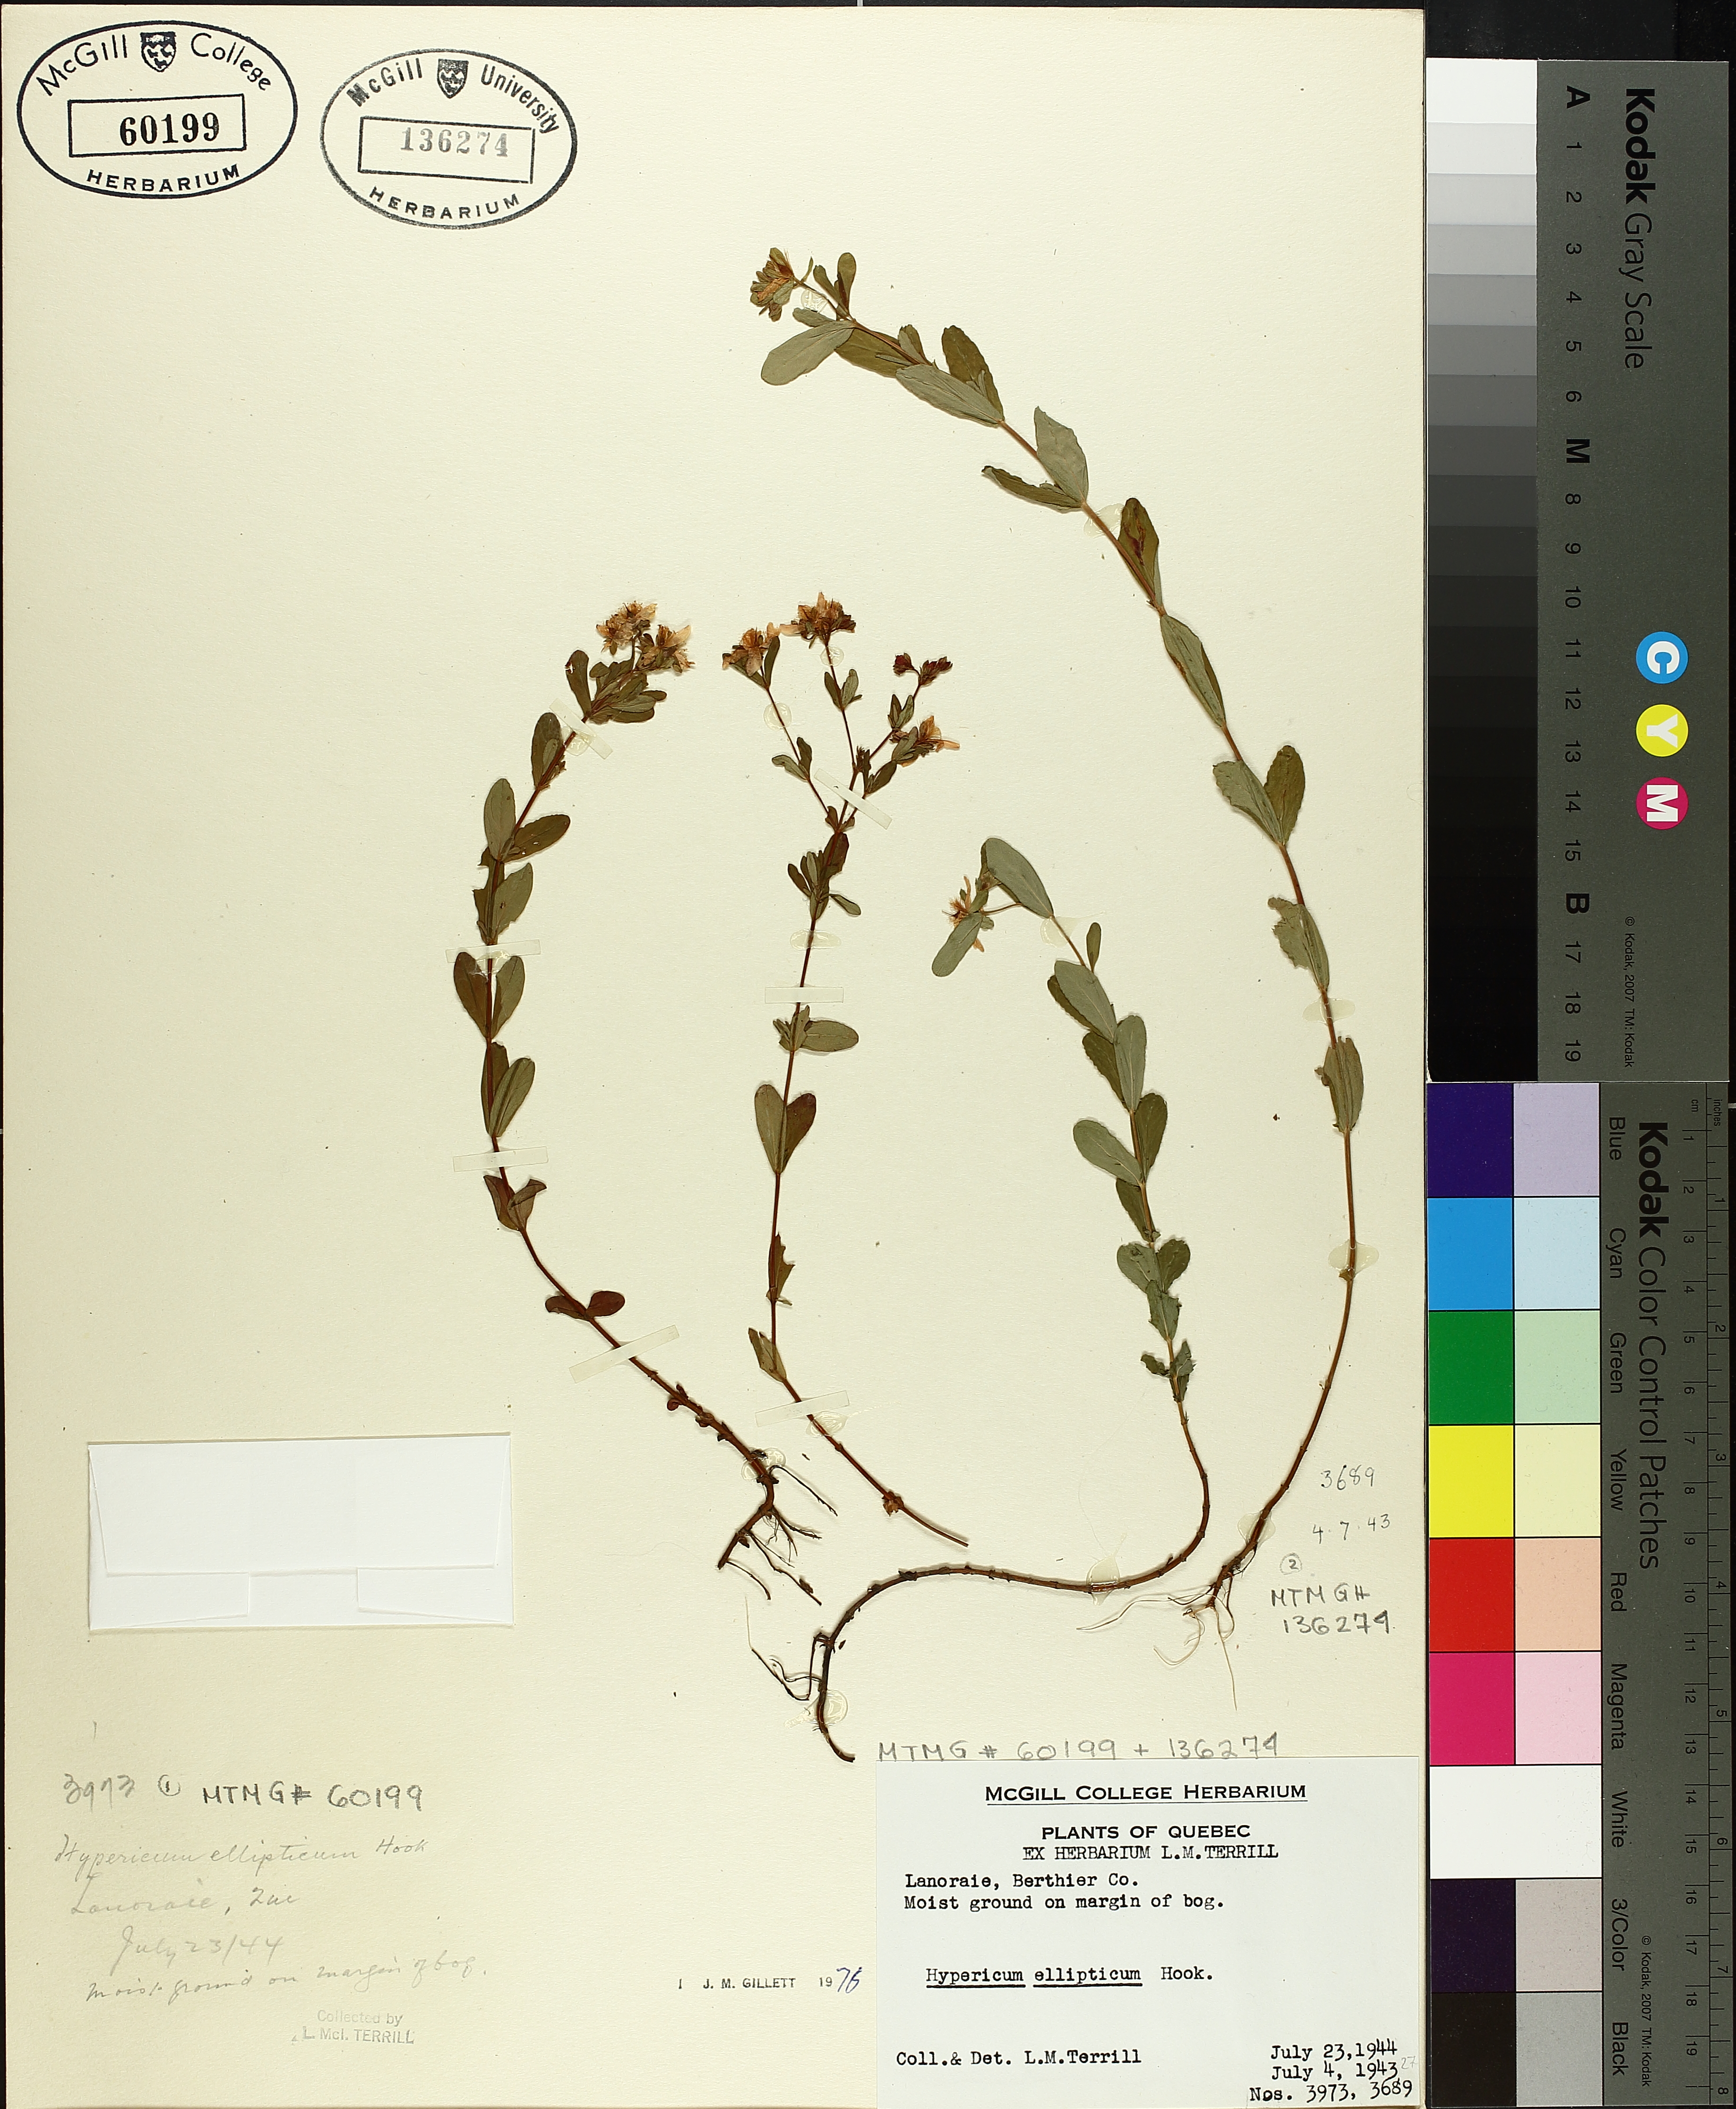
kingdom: Plantae
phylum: Tracheophyta
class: Magnoliopsida
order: Malpighiales
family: Hypericaceae
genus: Hypericum
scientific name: Hypericum ellipticum
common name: Elliptic st. john's-wort
